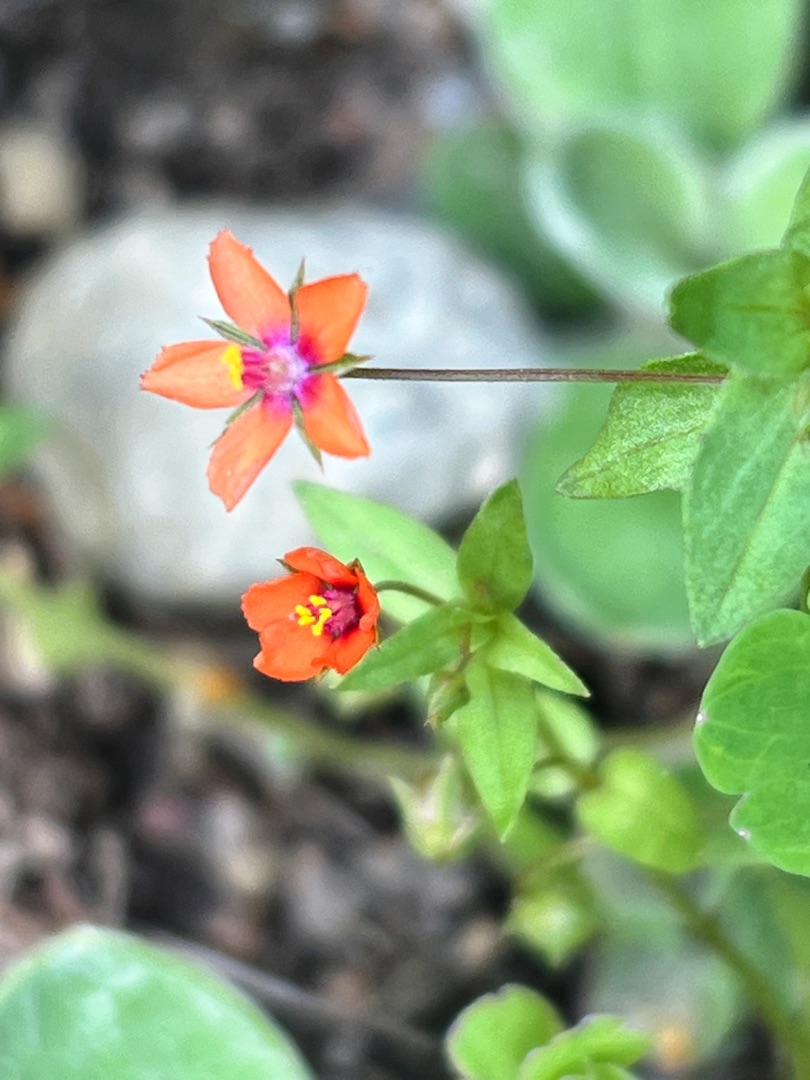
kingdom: Plantae
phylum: Tracheophyta
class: Magnoliopsida
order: Ericales
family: Primulaceae
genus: Lysimachia
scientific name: Lysimachia arvensis
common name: Rød arve
